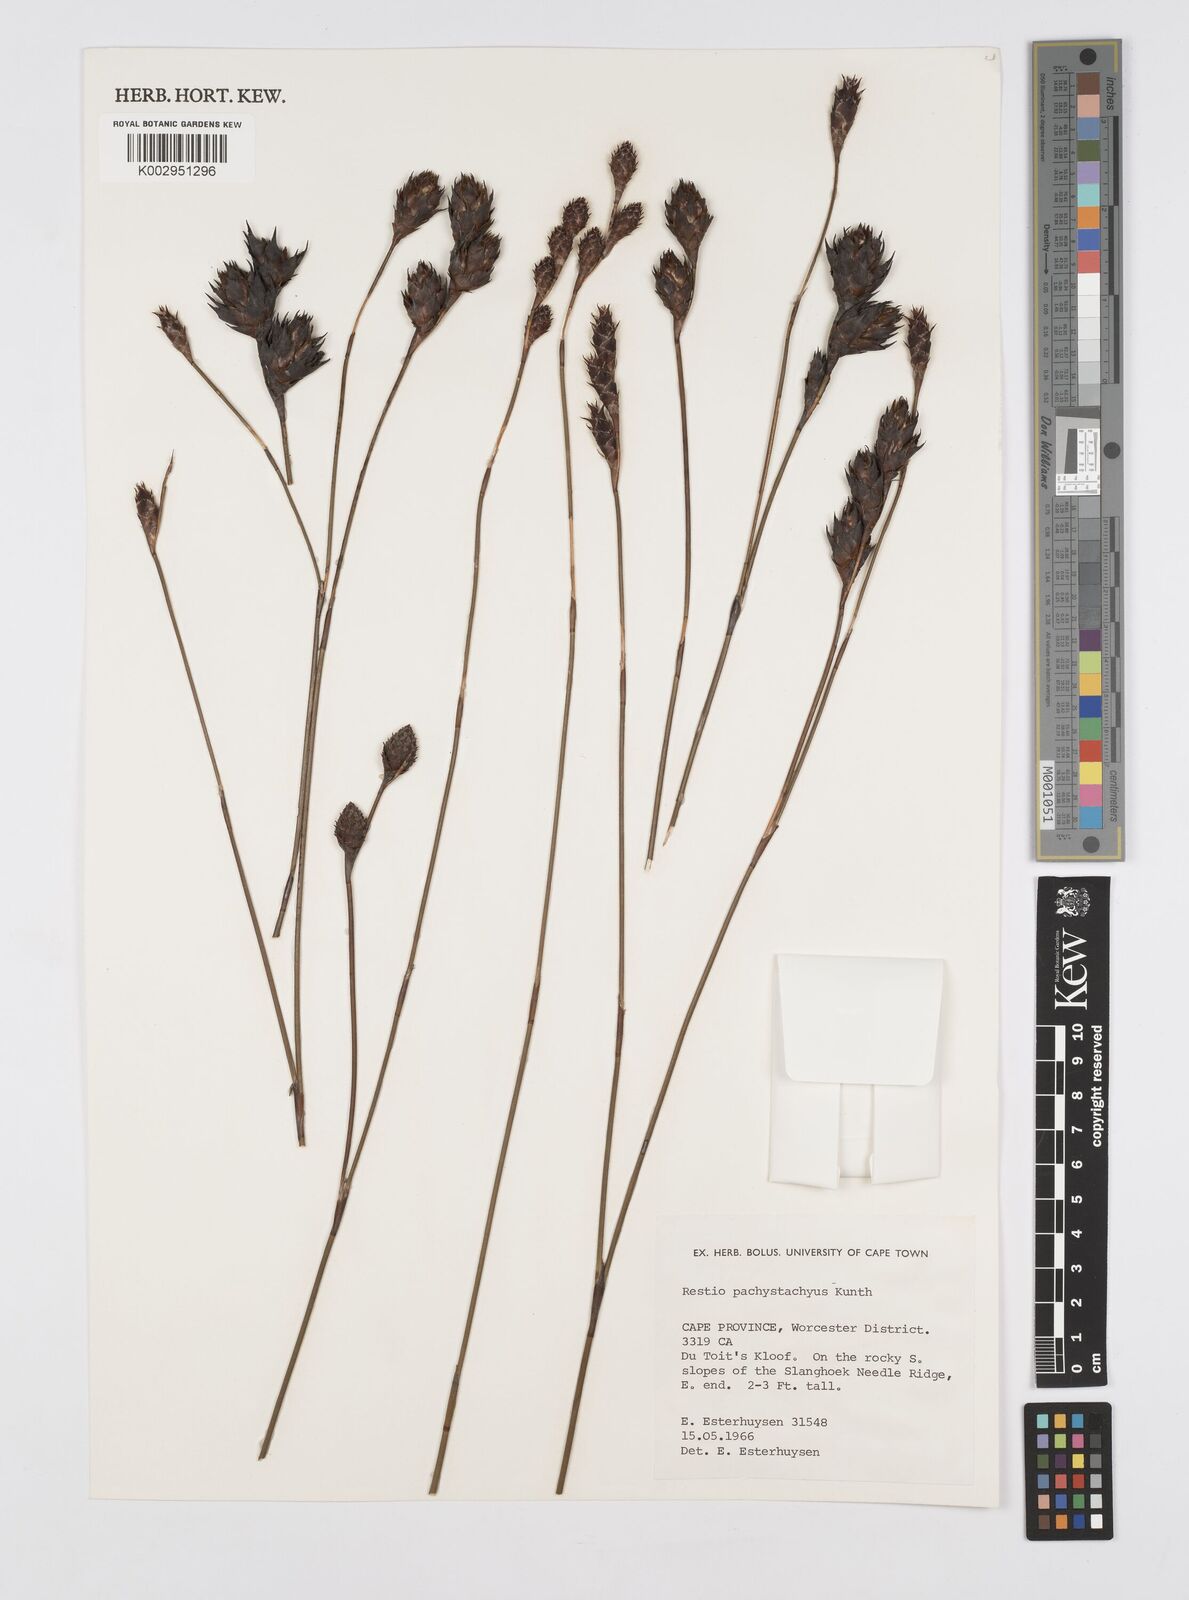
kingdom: Plantae
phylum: Tracheophyta
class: Liliopsida
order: Poales
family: Restionaceae
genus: Restio
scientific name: Restio pachystachyus
